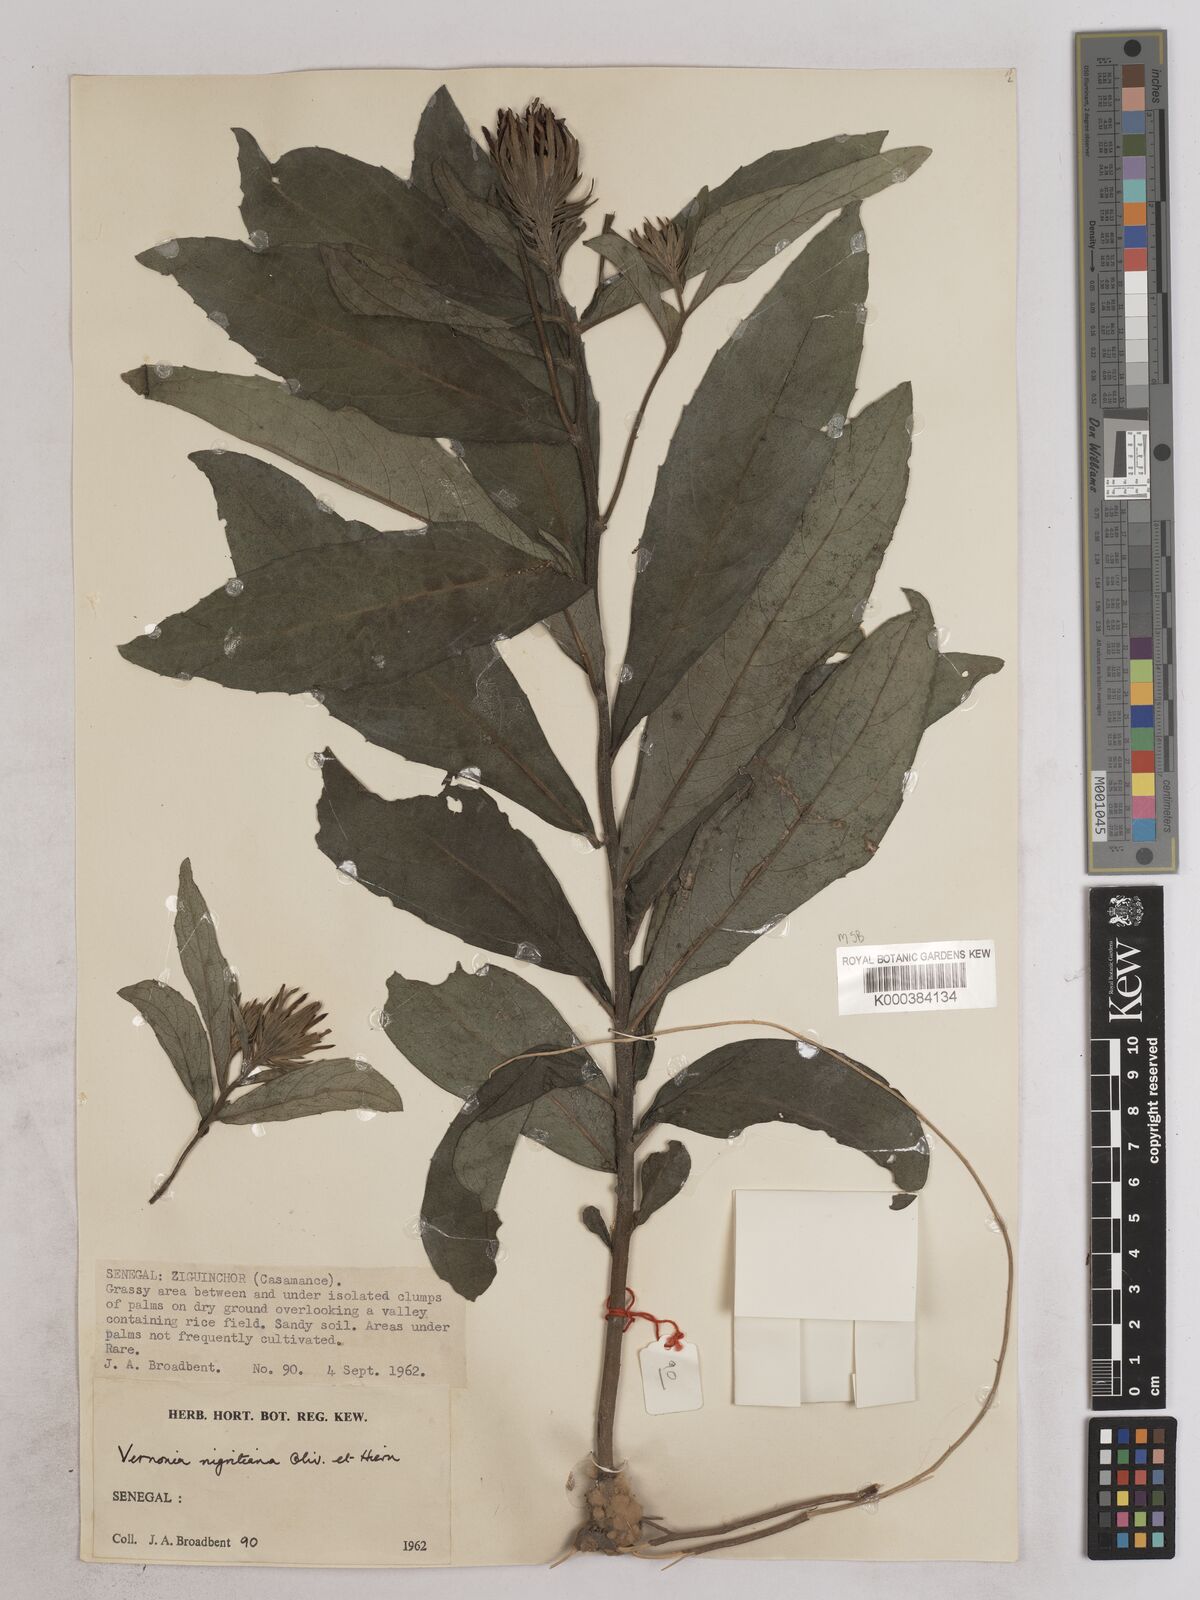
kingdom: Plantae
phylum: Tracheophyta
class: Magnoliopsida
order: Asterales
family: Asteraceae
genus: Linzia
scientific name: Linzia nigritiana
